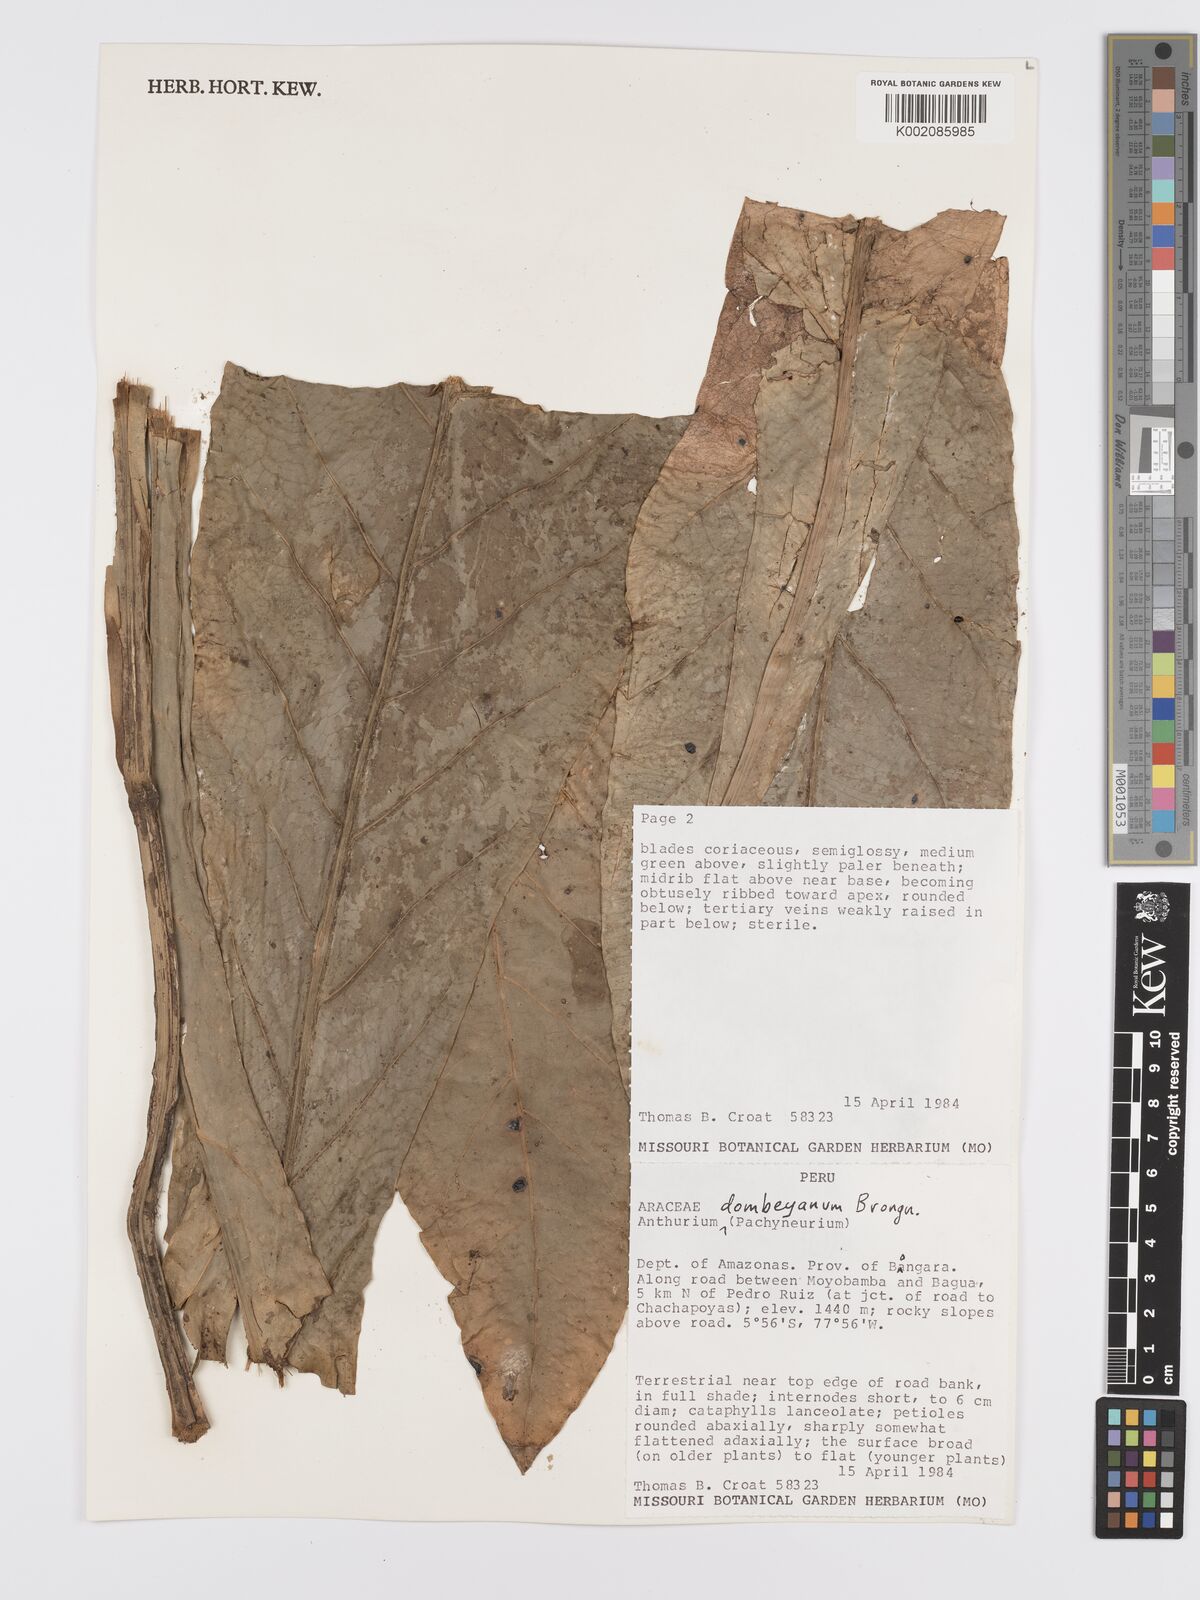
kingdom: Plantae
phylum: Tracheophyta
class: Liliopsida
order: Alismatales
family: Araceae
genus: Anthurium
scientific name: Anthurium dombeyanum
